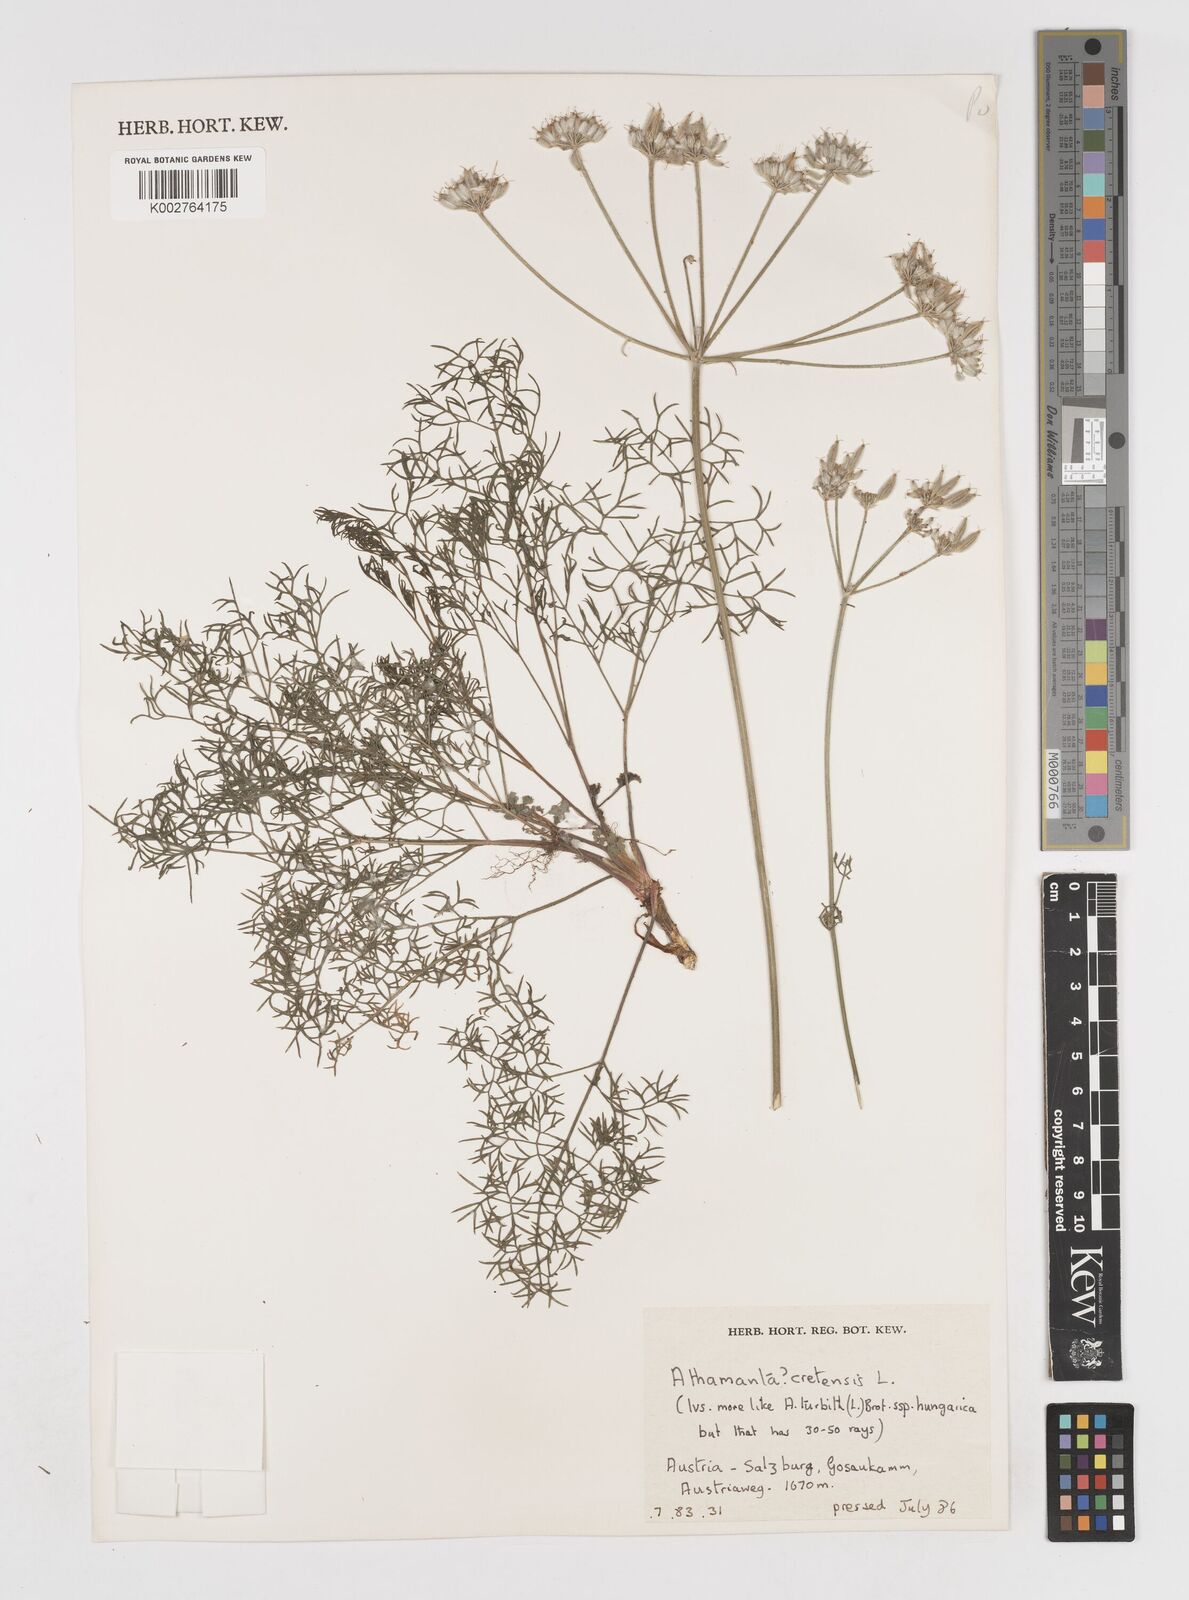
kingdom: Plantae
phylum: Tracheophyta
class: Magnoliopsida
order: Apiales
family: Apiaceae
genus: Athamanta
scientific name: Athamanta cretensis
